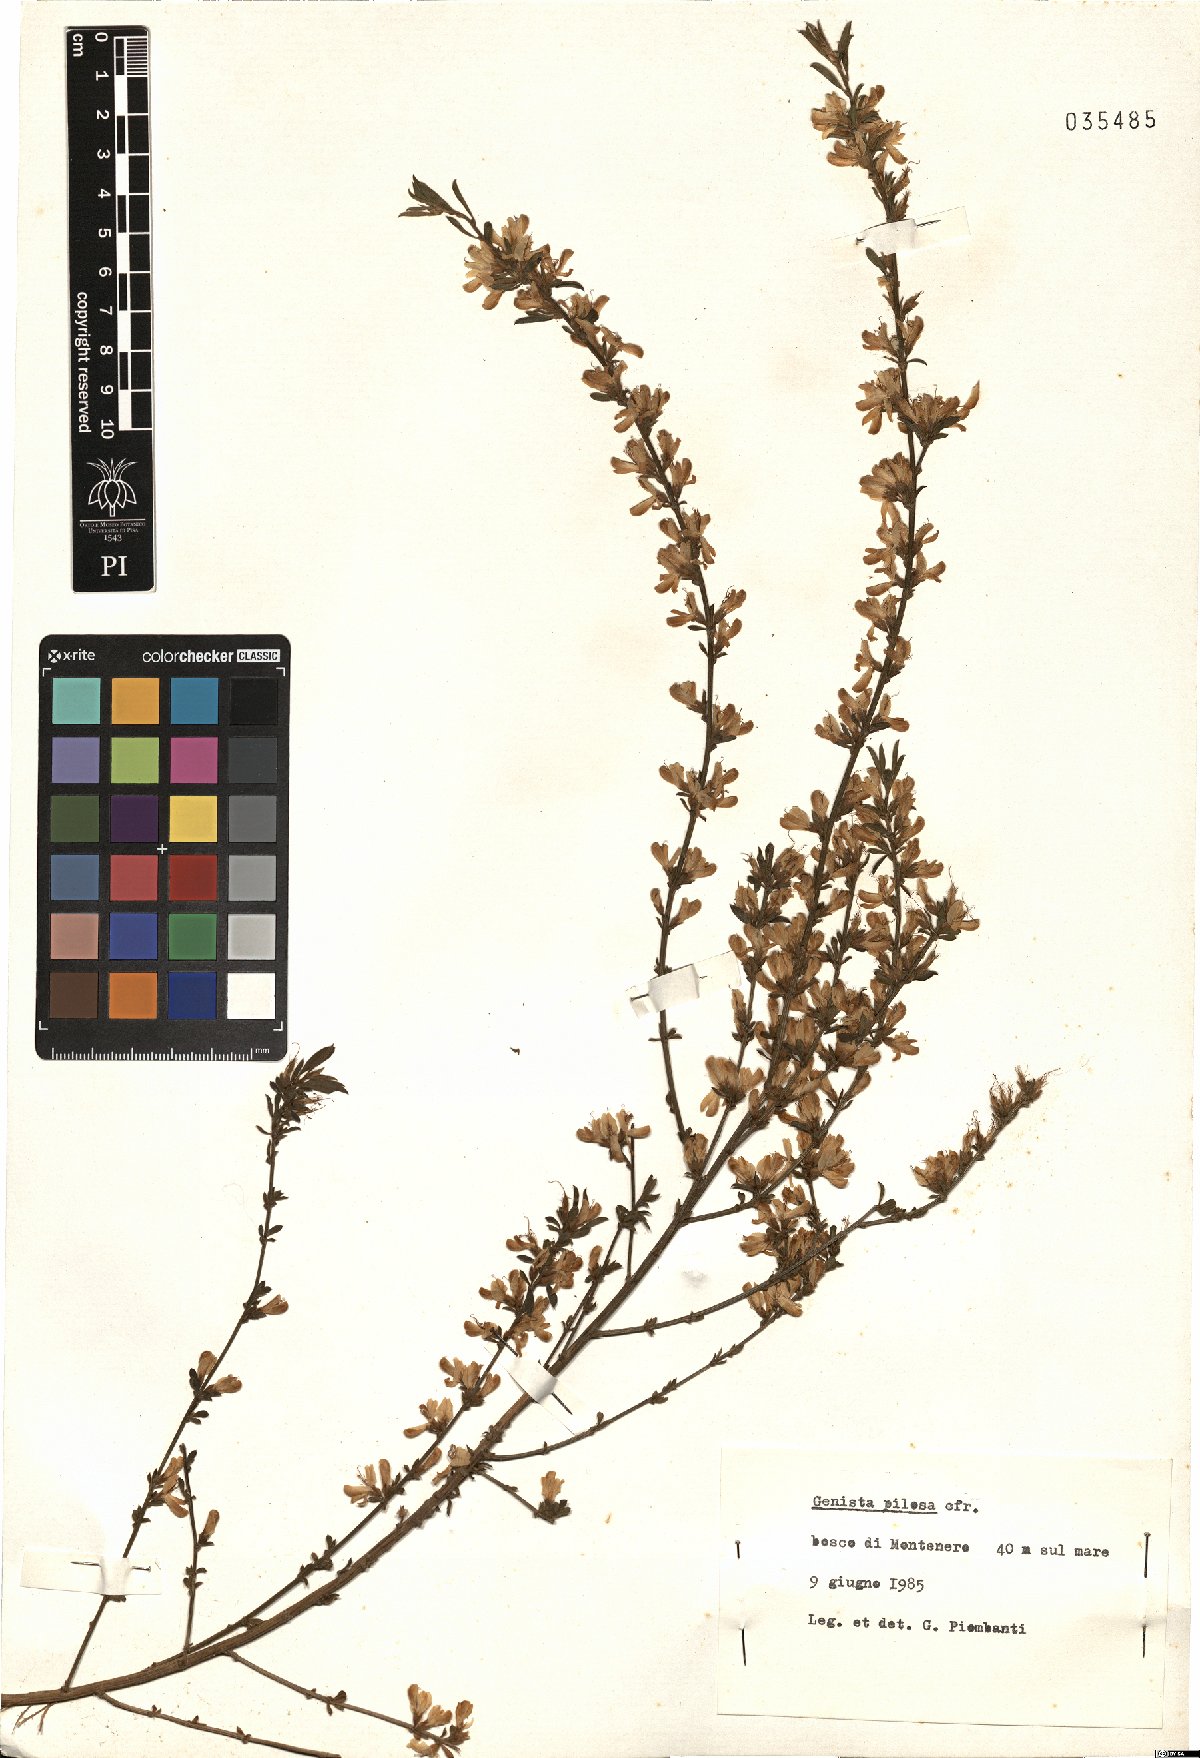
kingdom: Plantae
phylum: Tracheophyta
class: Magnoliopsida
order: Fabales
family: Fabaceae
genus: Genista
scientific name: Genista pilosa
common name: Hairy greenweed
